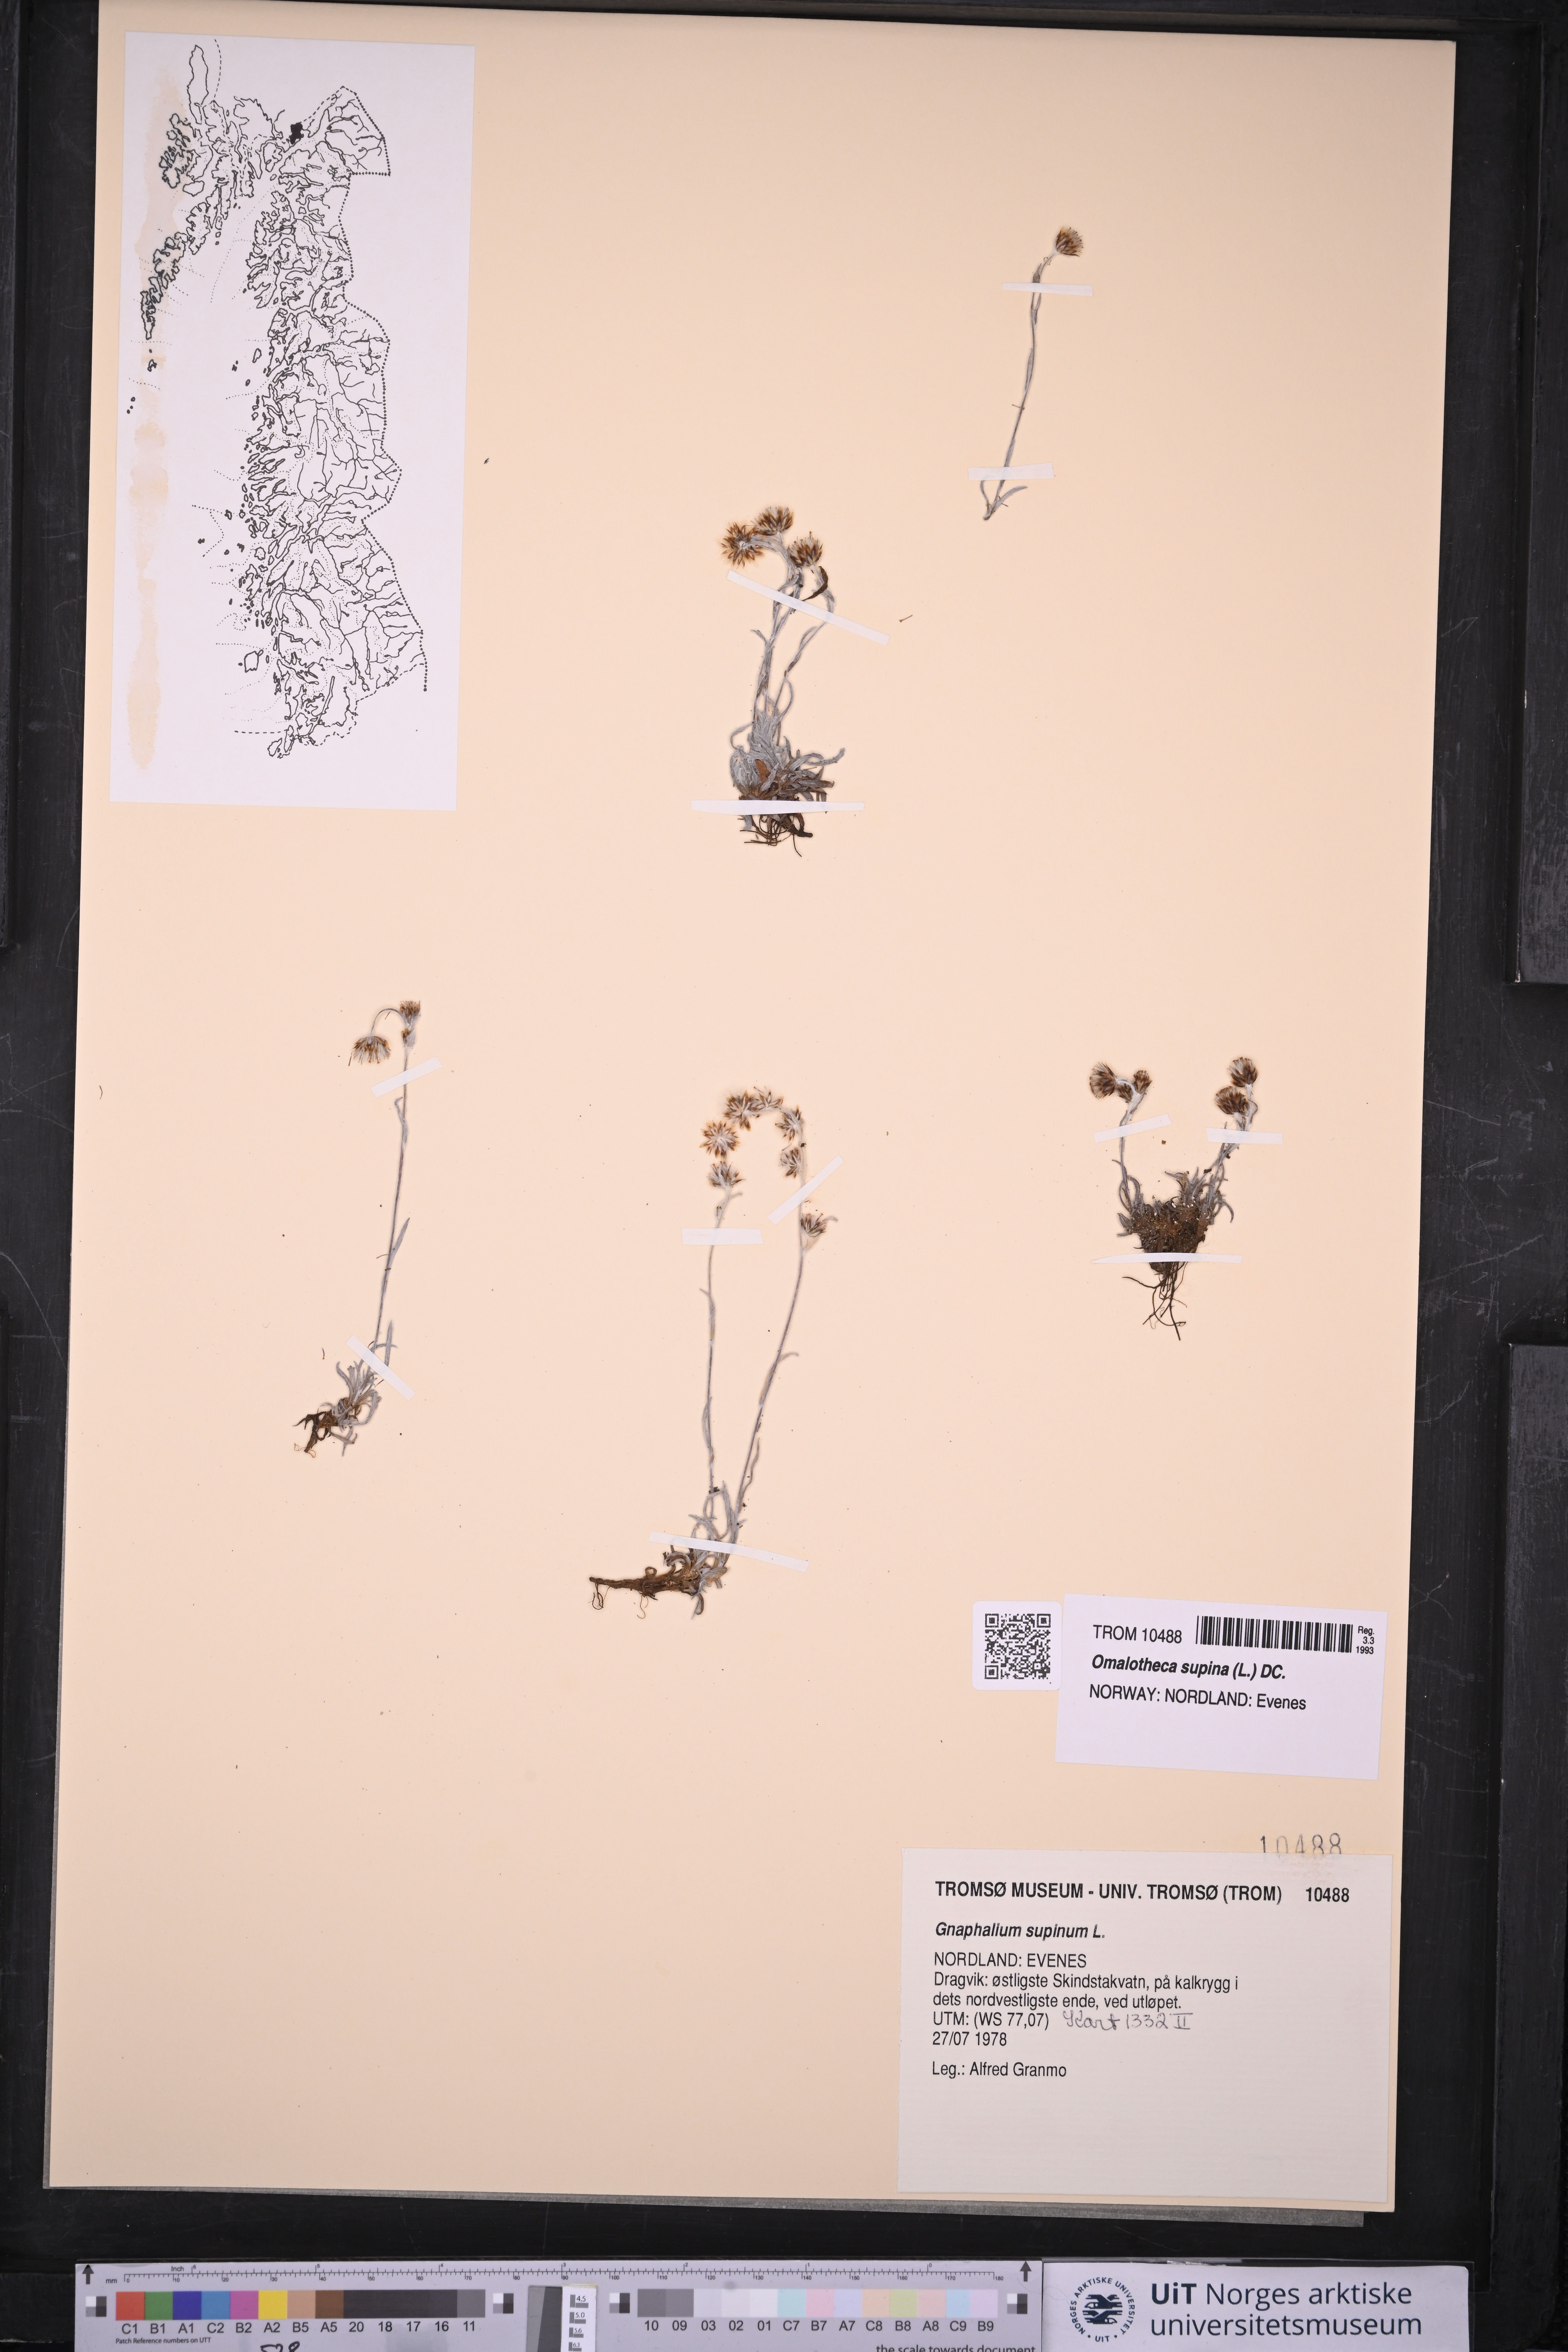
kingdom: Plantae
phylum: Tracheophyta
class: Magnoliopsida
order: Asterales
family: Asteraceae
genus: Omalotheca
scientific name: Omalotheca supina
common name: Alpine arctic-cudweed
